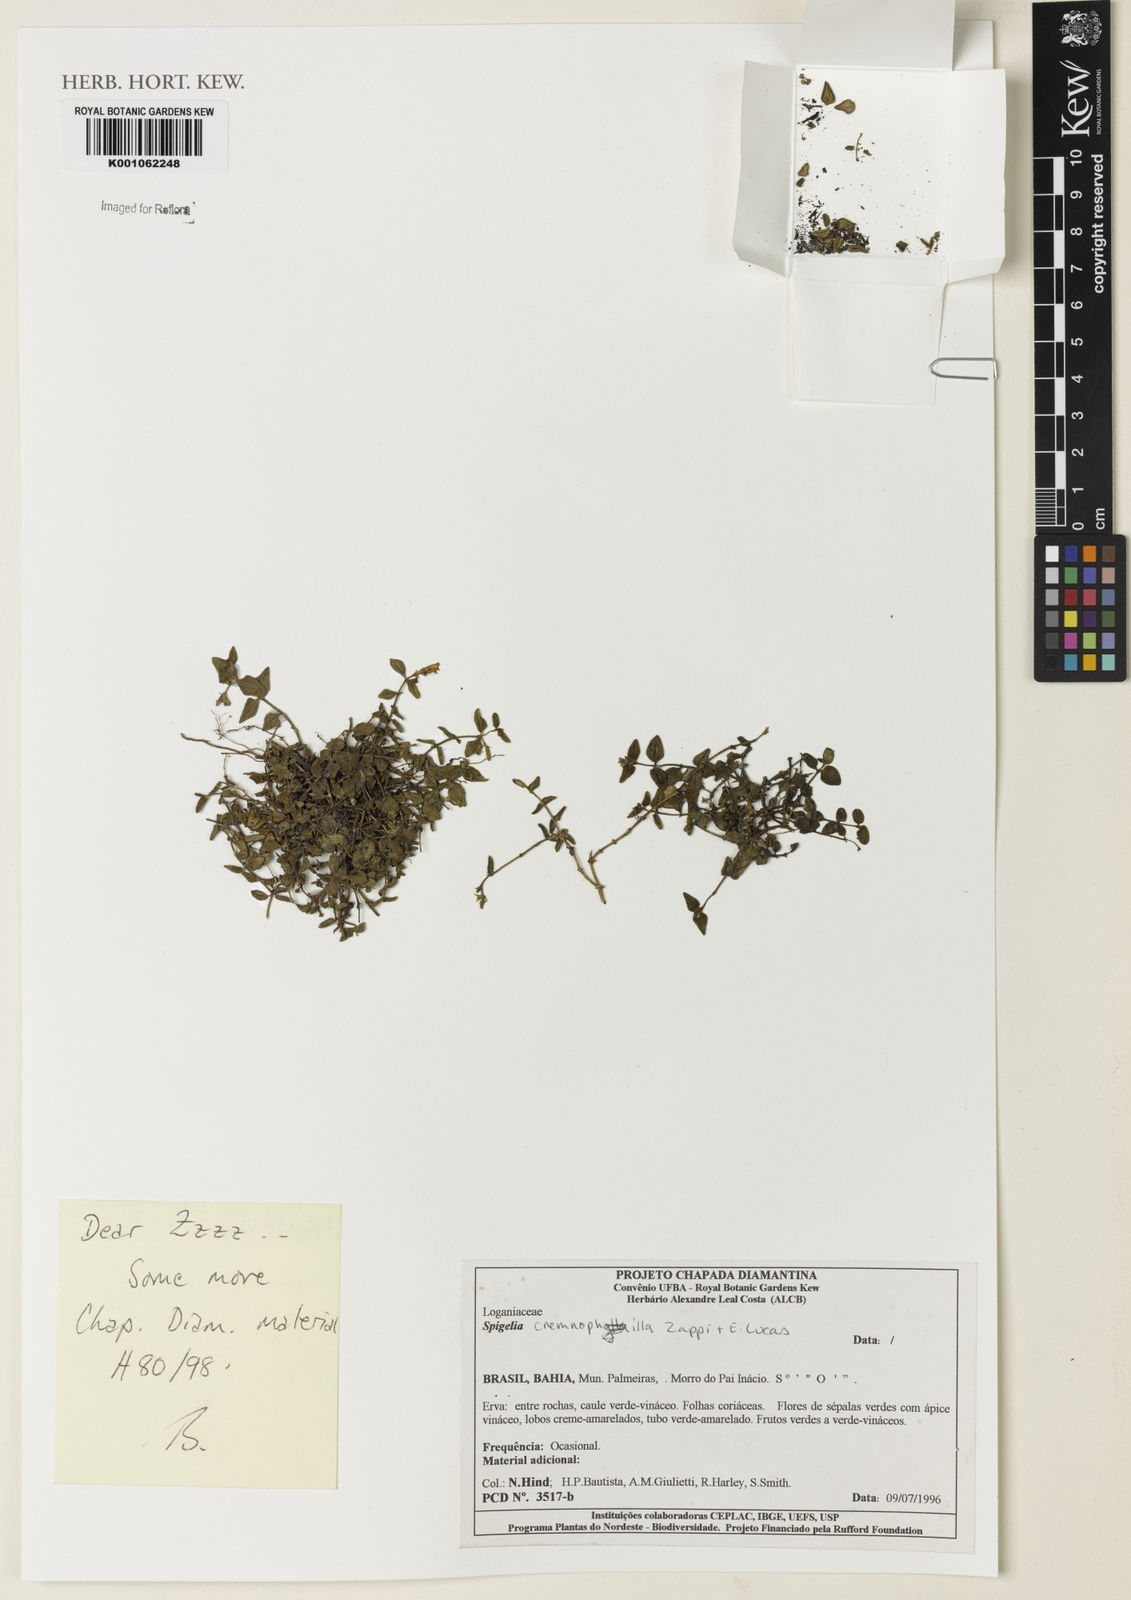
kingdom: Plantae
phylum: Tracheophyta
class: Magnoliopsida
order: Gentianales
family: Loganiaceae
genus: Spigelia
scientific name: Spigelia cremnophila
